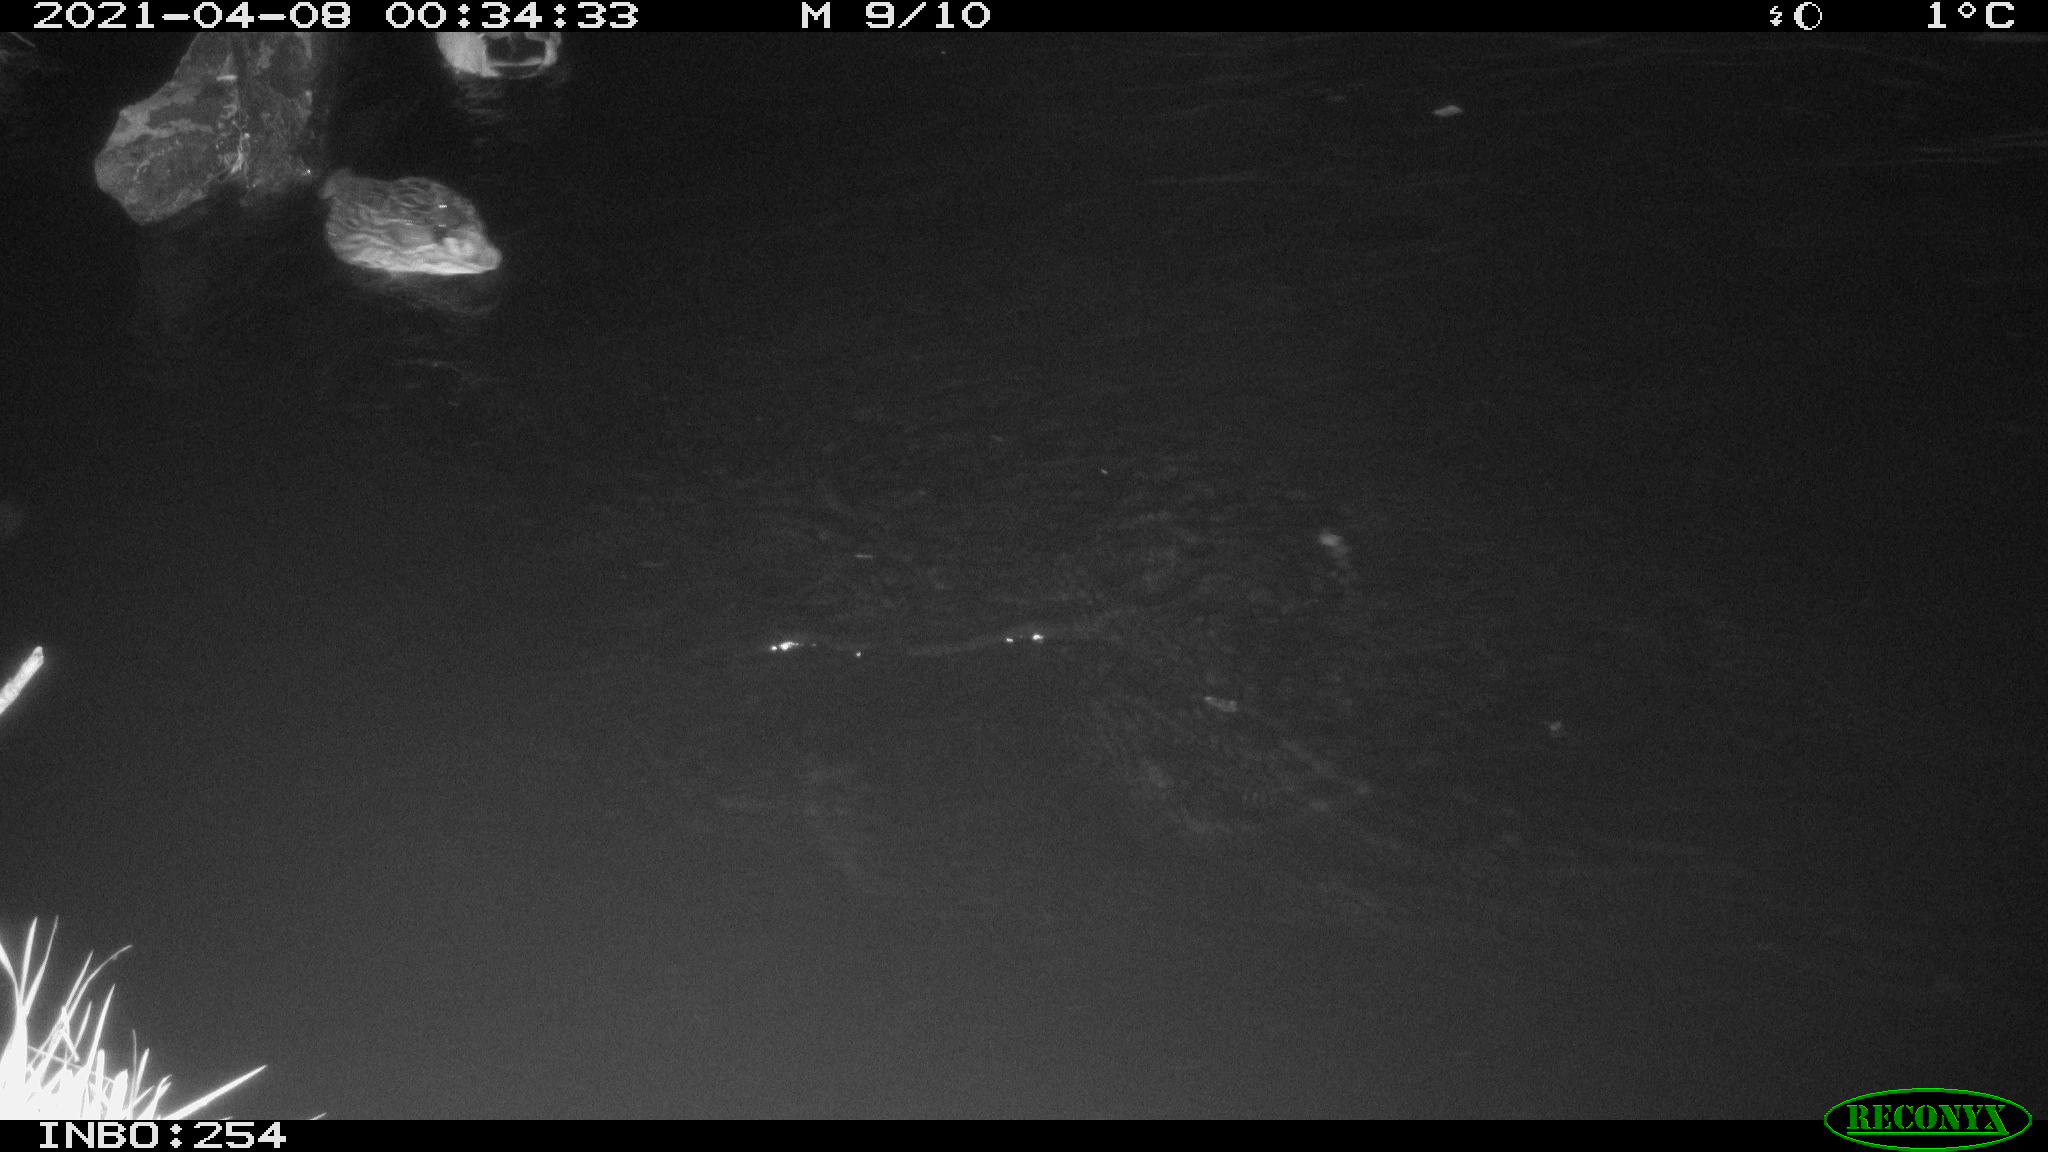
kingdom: Animalia
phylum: Chordata
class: Aves
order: Anseriformes
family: Anatidae
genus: Anas
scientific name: Anas
